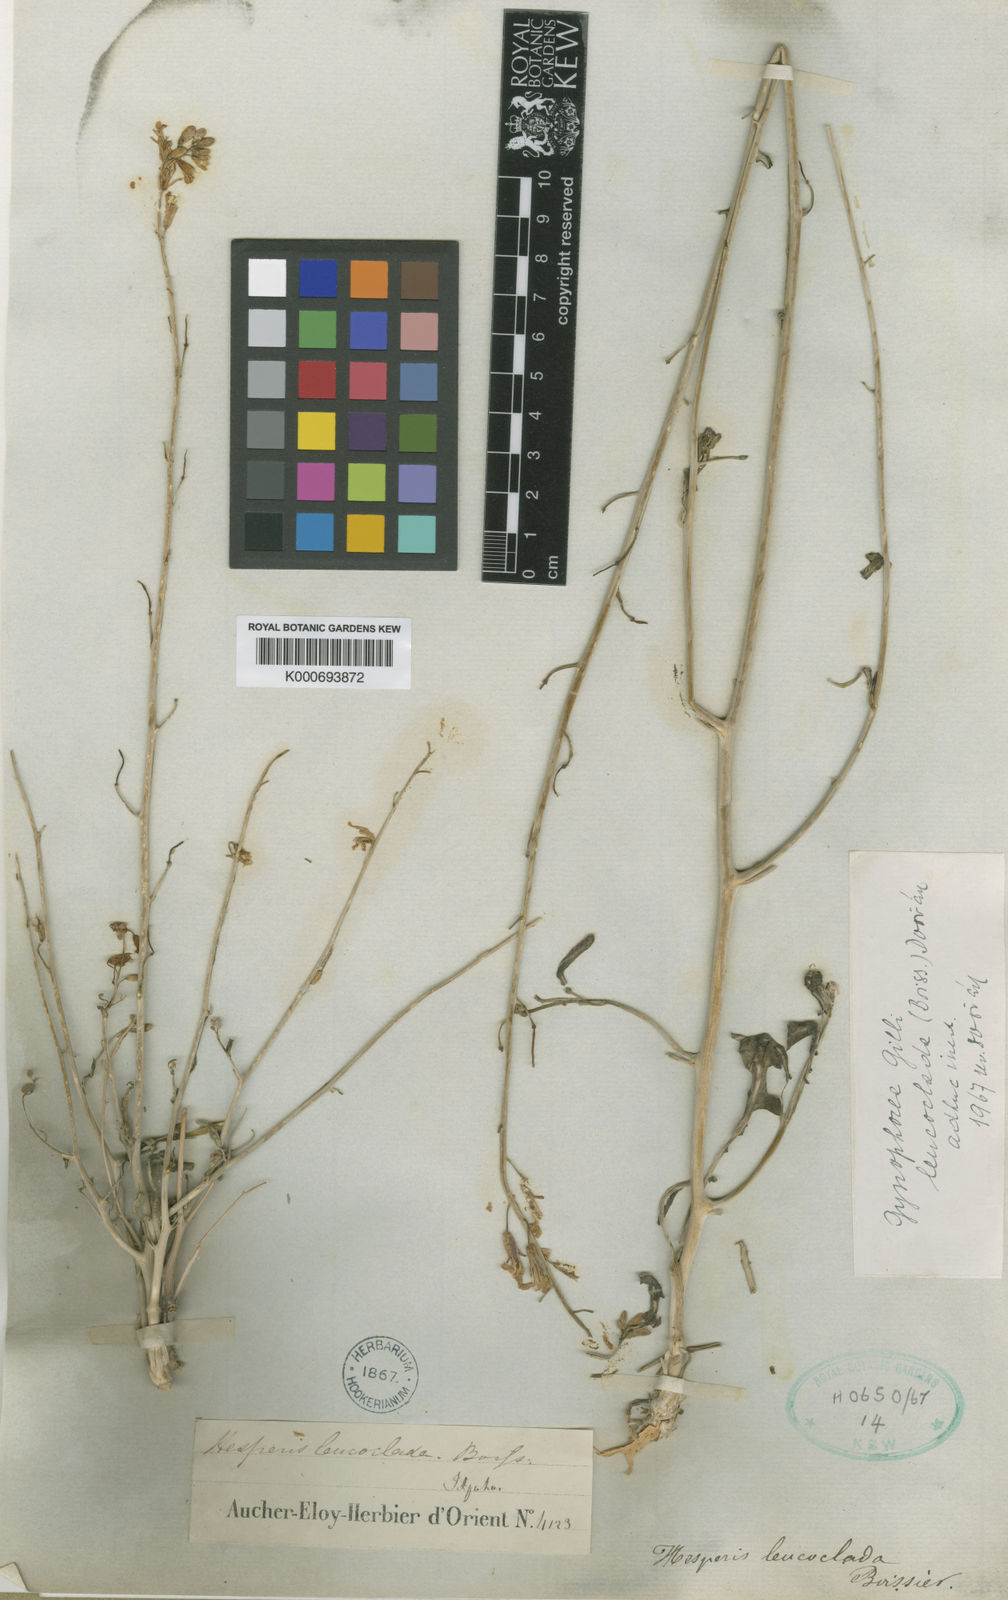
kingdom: Plantae
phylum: Tracheophyta
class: Magnoliopsida
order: Brassicales
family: Brassicaceae
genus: Gynophorea
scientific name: Gynophorea
